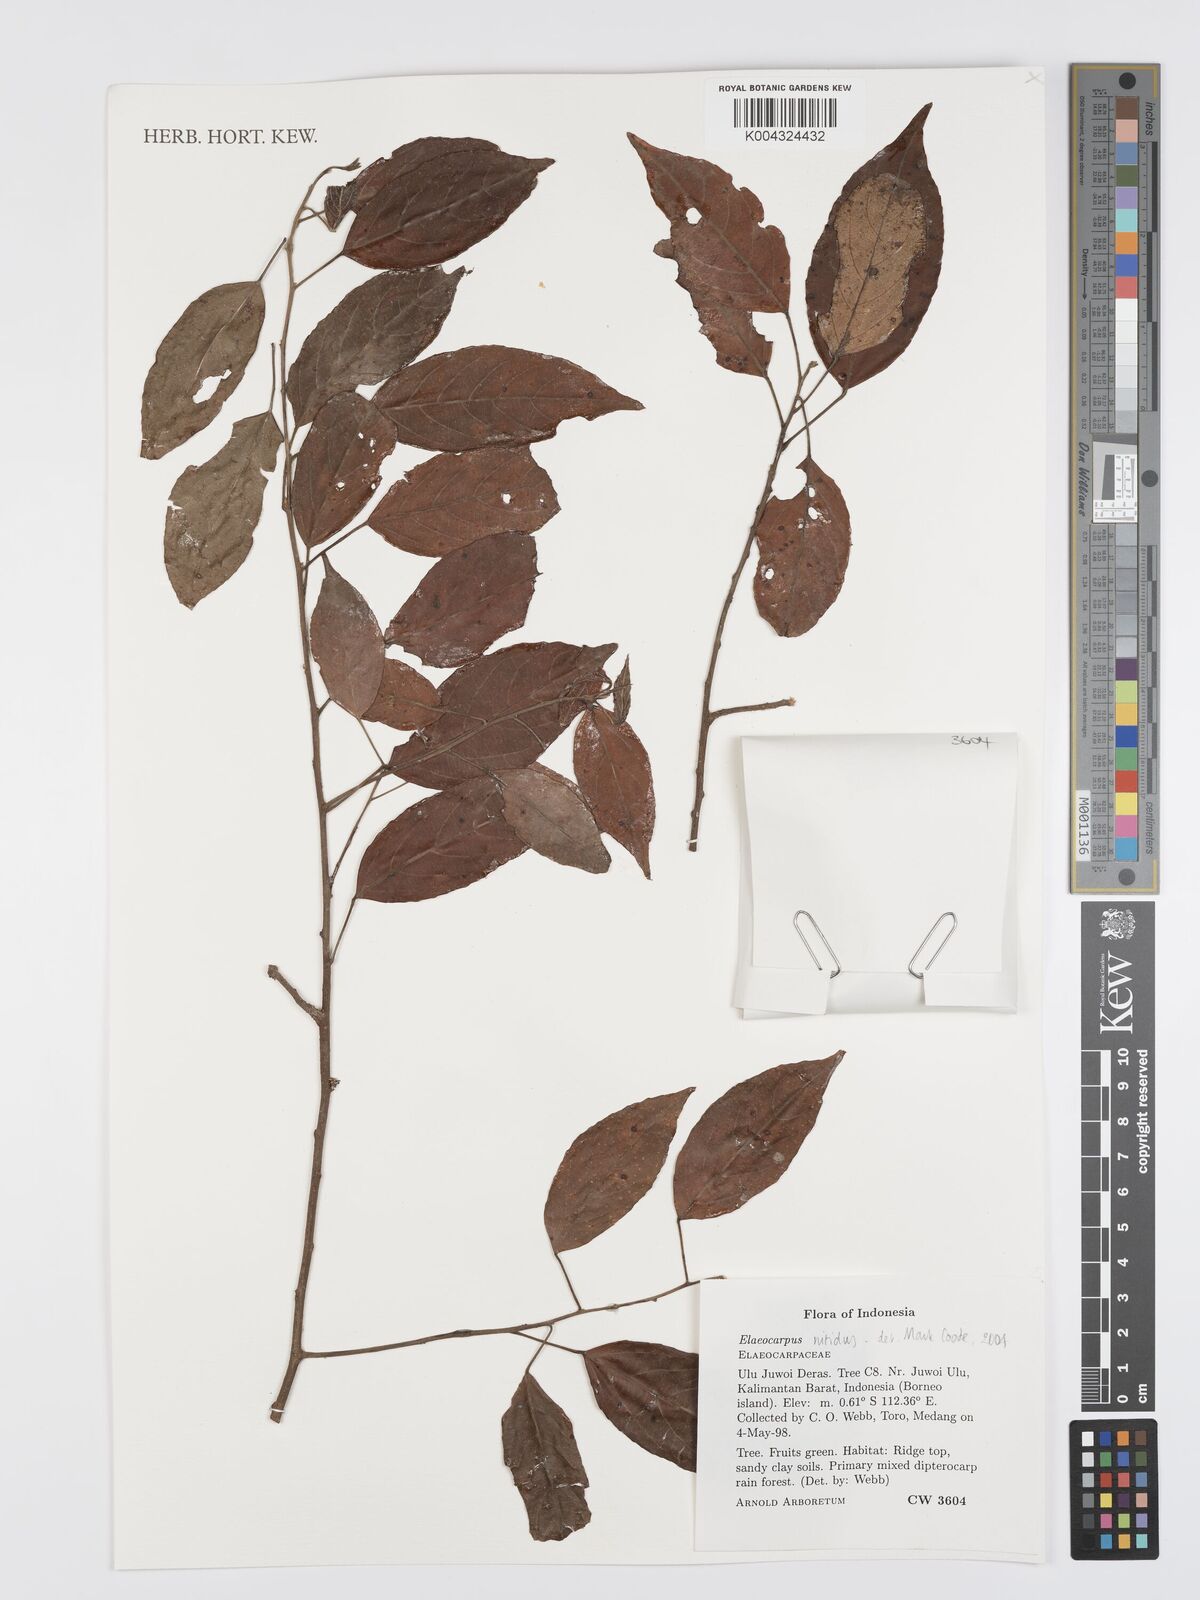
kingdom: Plantae
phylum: Tracheophyta
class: Magnoliopsida
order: Oxalidales
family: Elaeocarpaceae
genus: Elaeocarpus
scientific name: Elaeocarpus nitidus
